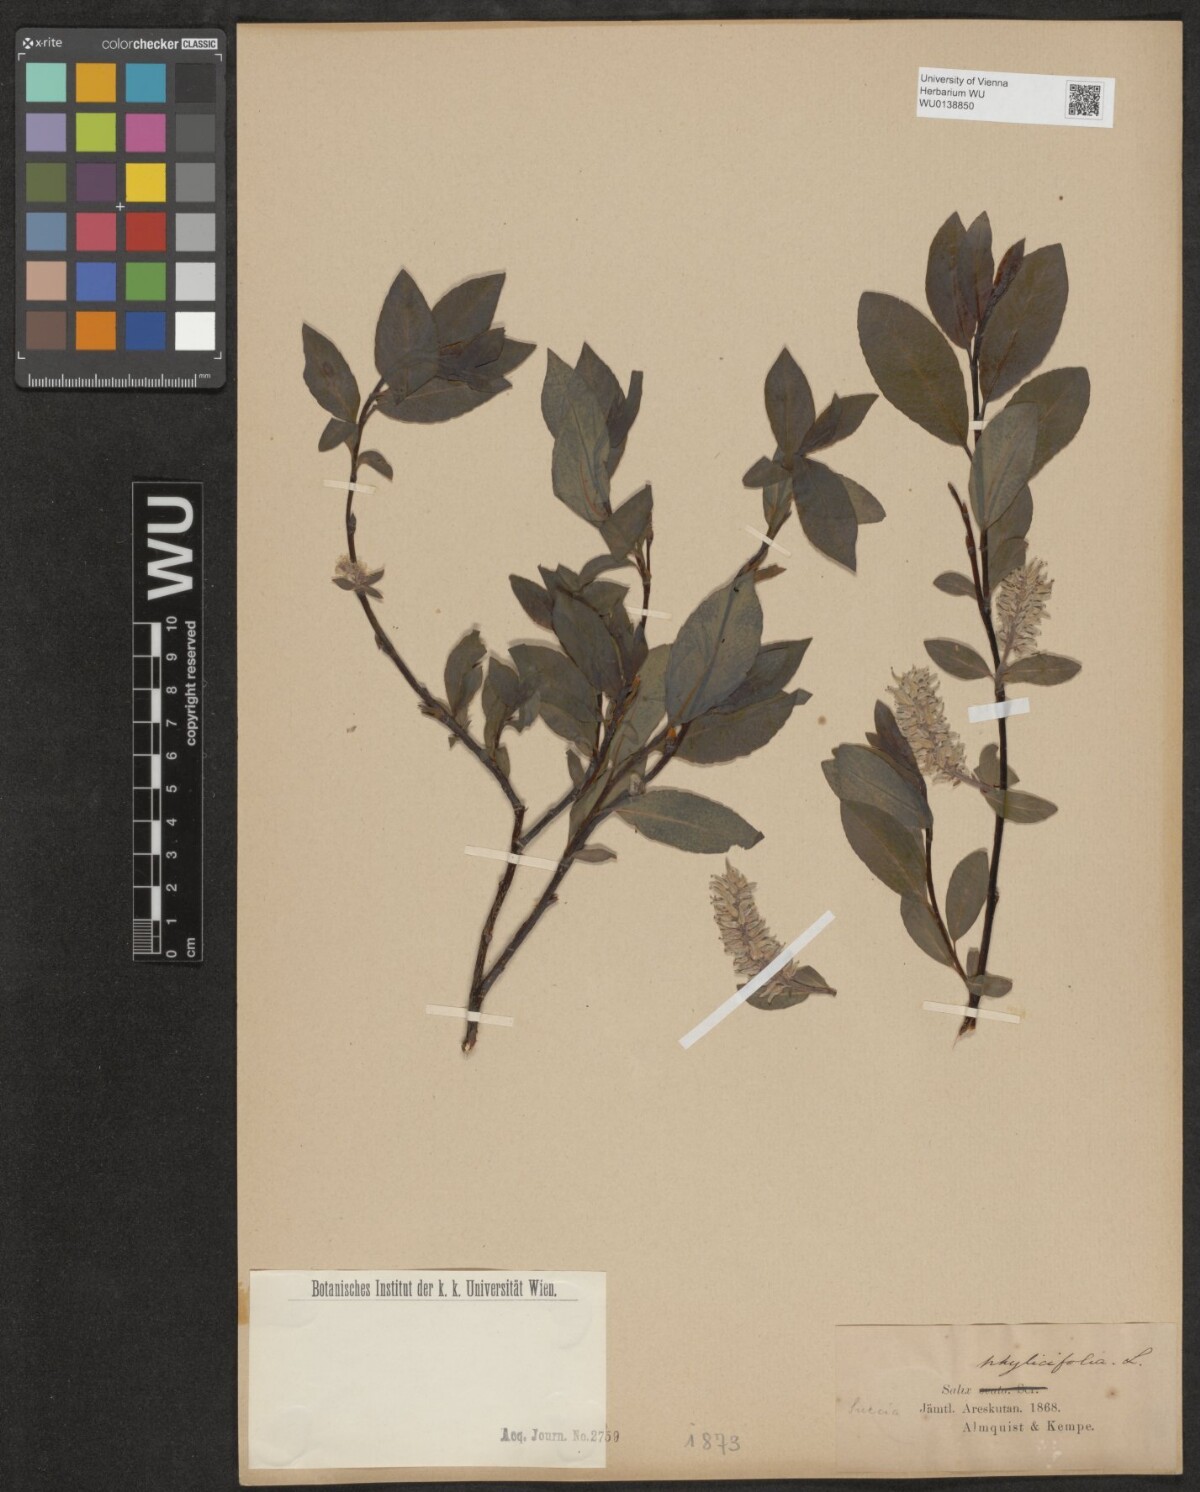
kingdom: Plantae
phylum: Tracheophyta
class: Magnoliopsida
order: Malpighiales
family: Salicaceae
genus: Salix
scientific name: Salix phylicifolia
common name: Tea-leaved willow
